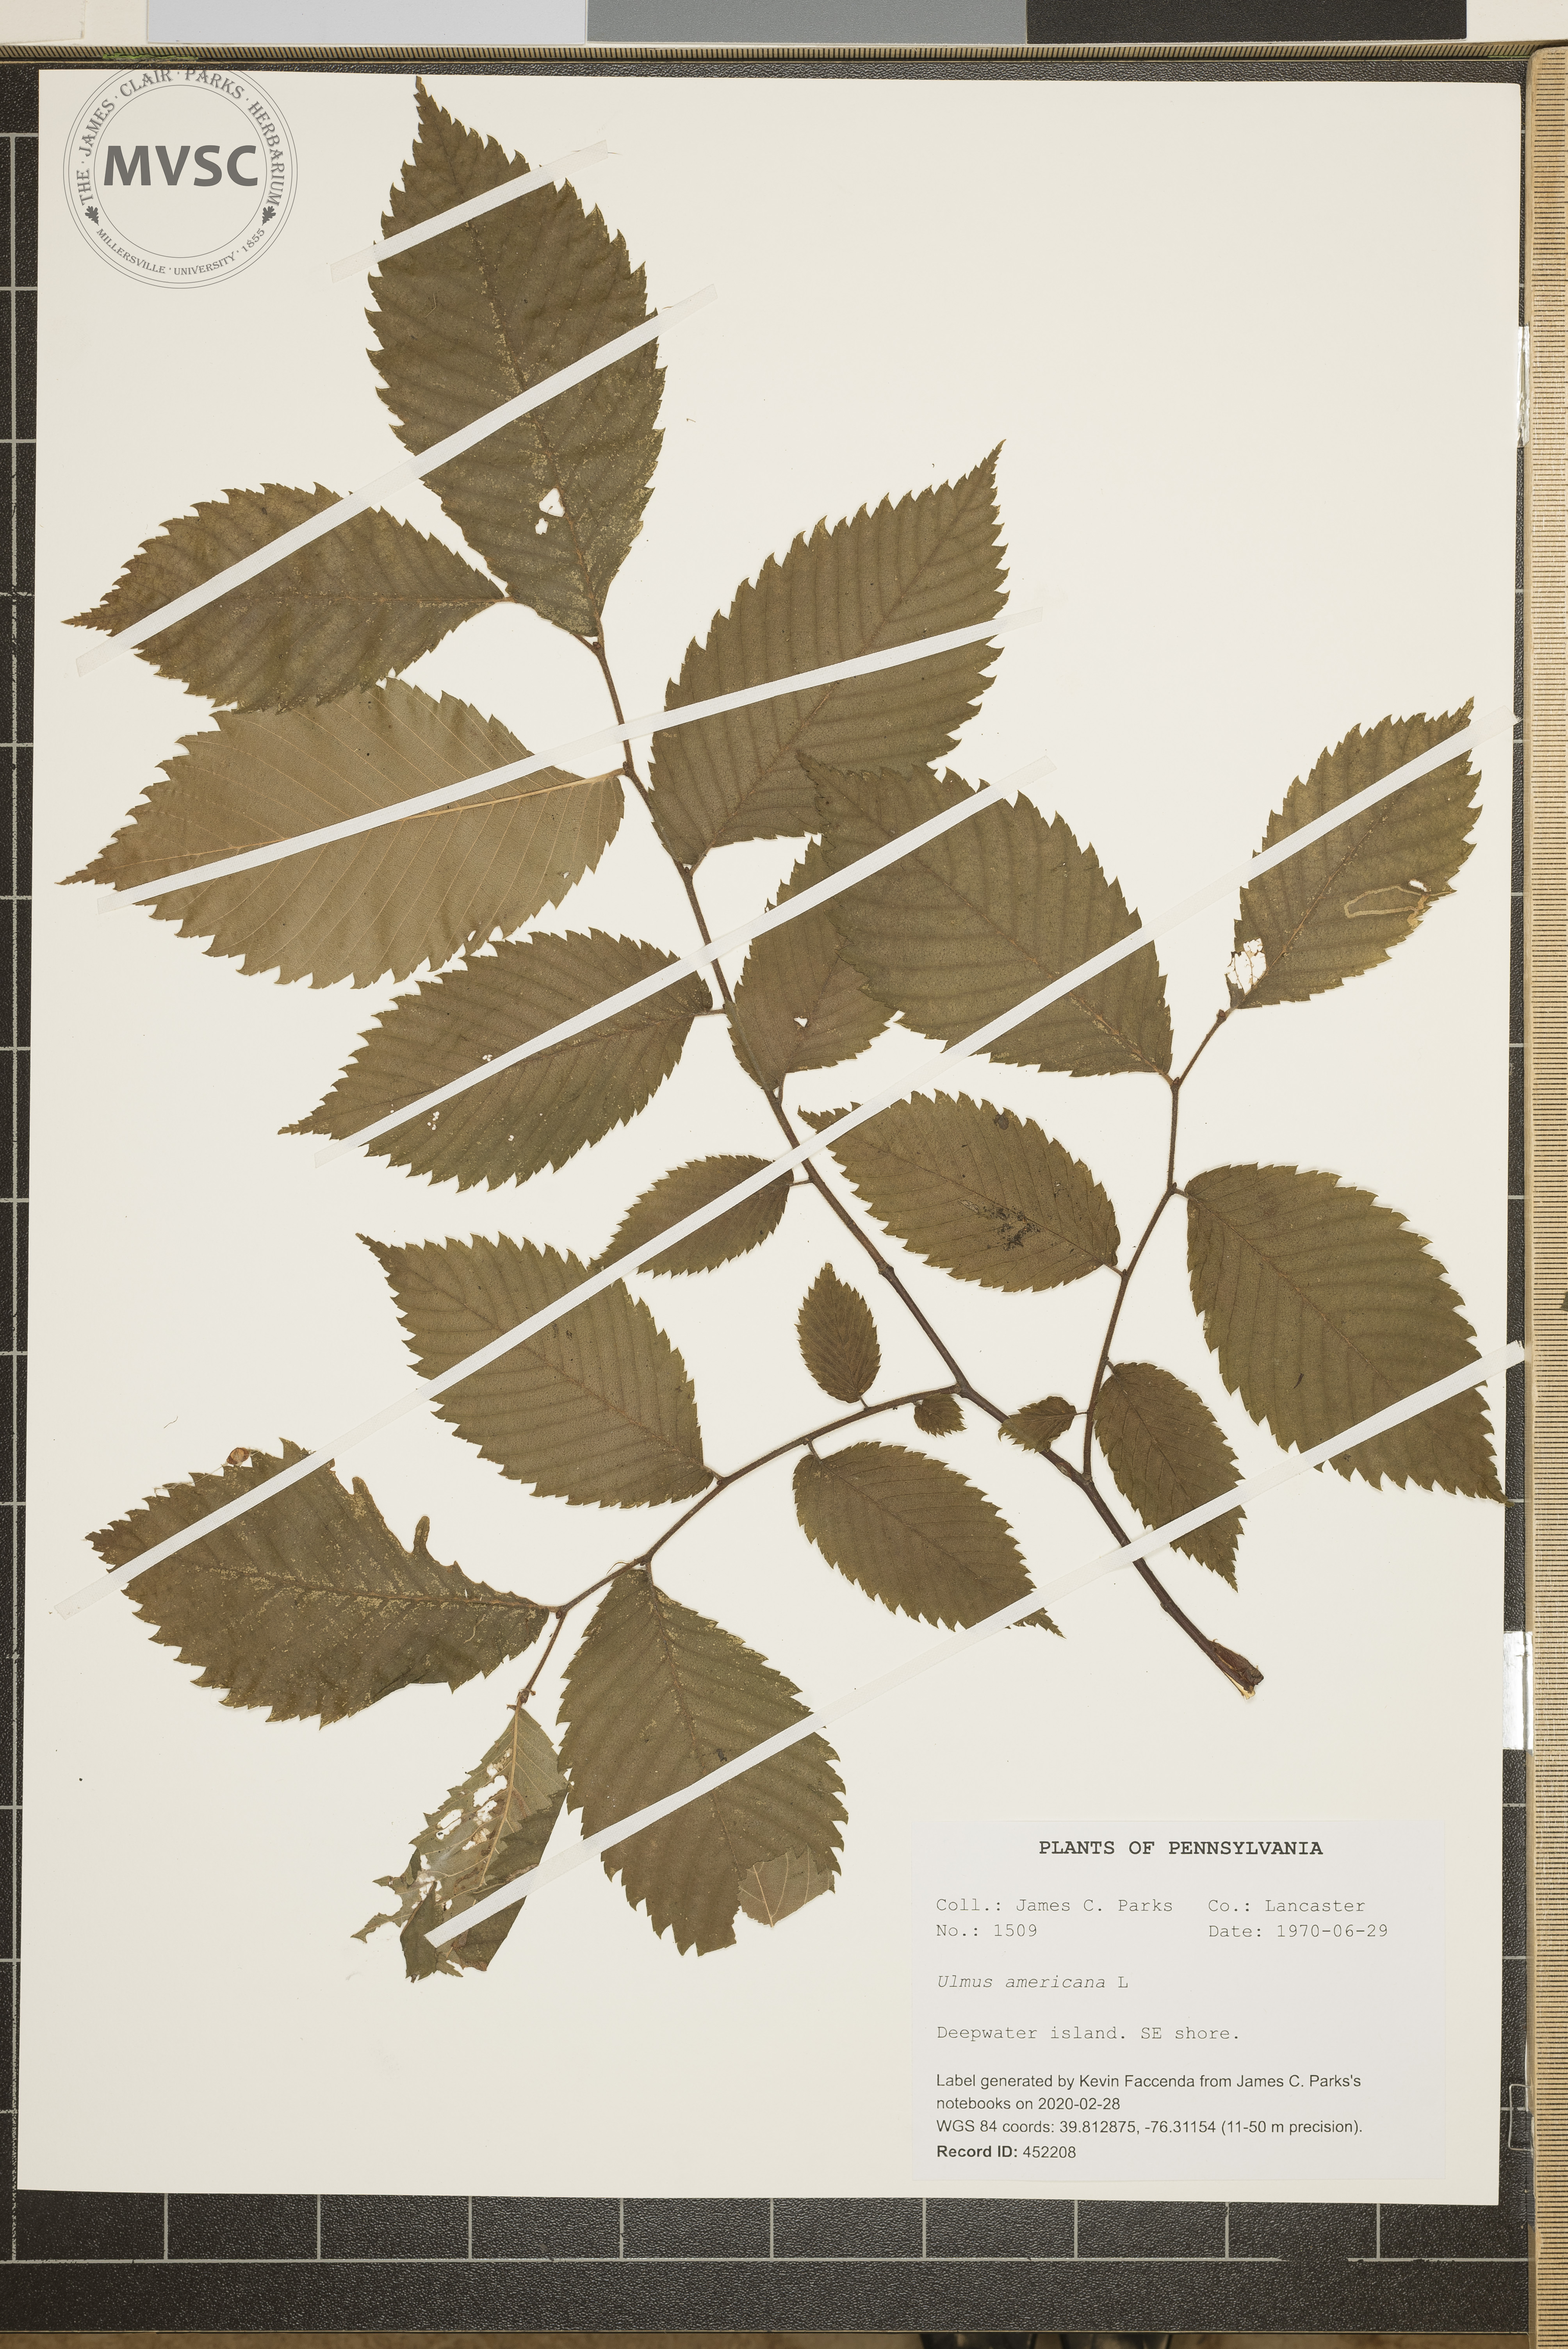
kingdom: Plantae
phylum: Tracheophyta
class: Magnoliopsida
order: Rosales
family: Ulmaceae
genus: Ulmus
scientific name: Ulmus americana
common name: American elm
